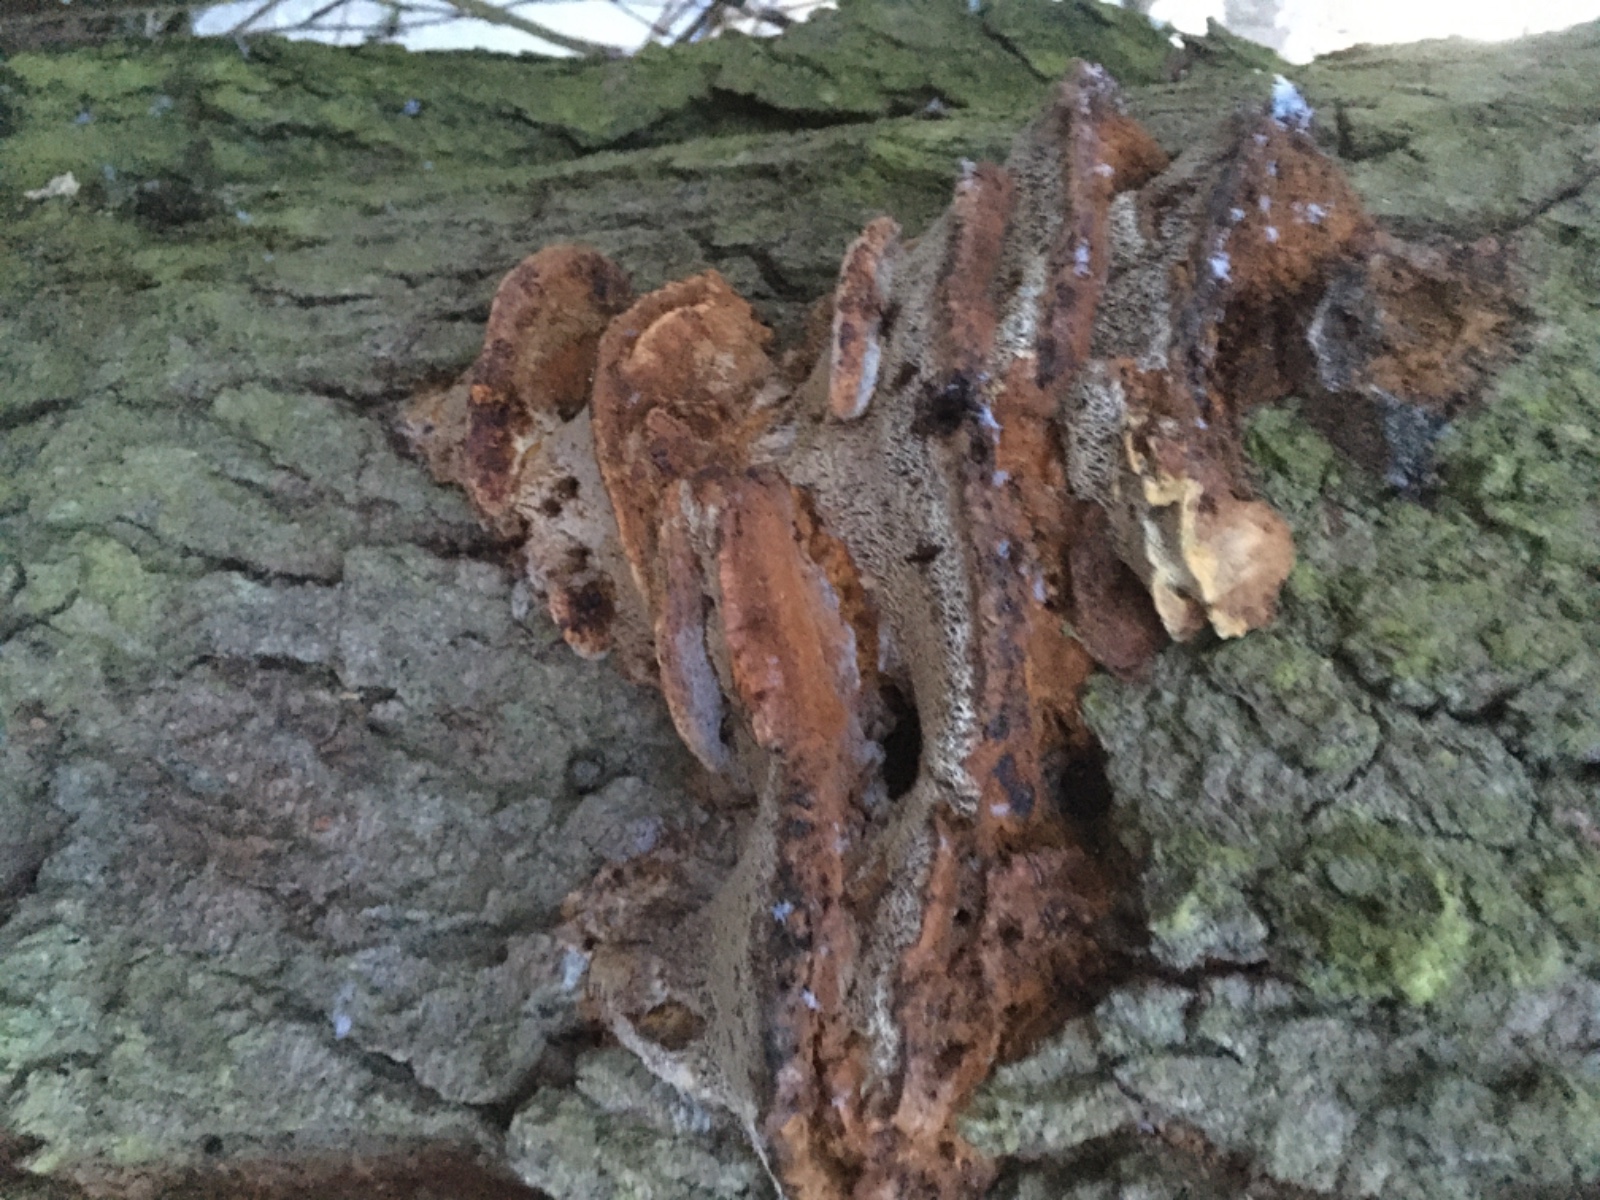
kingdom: Fungi
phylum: Basidiomycota
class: Agaricomycetes
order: Hymenochaetales
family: Hymenochaetaceae
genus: Xanthoporia
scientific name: Xanthoporia radiata
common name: elle-spejlporesvamp
